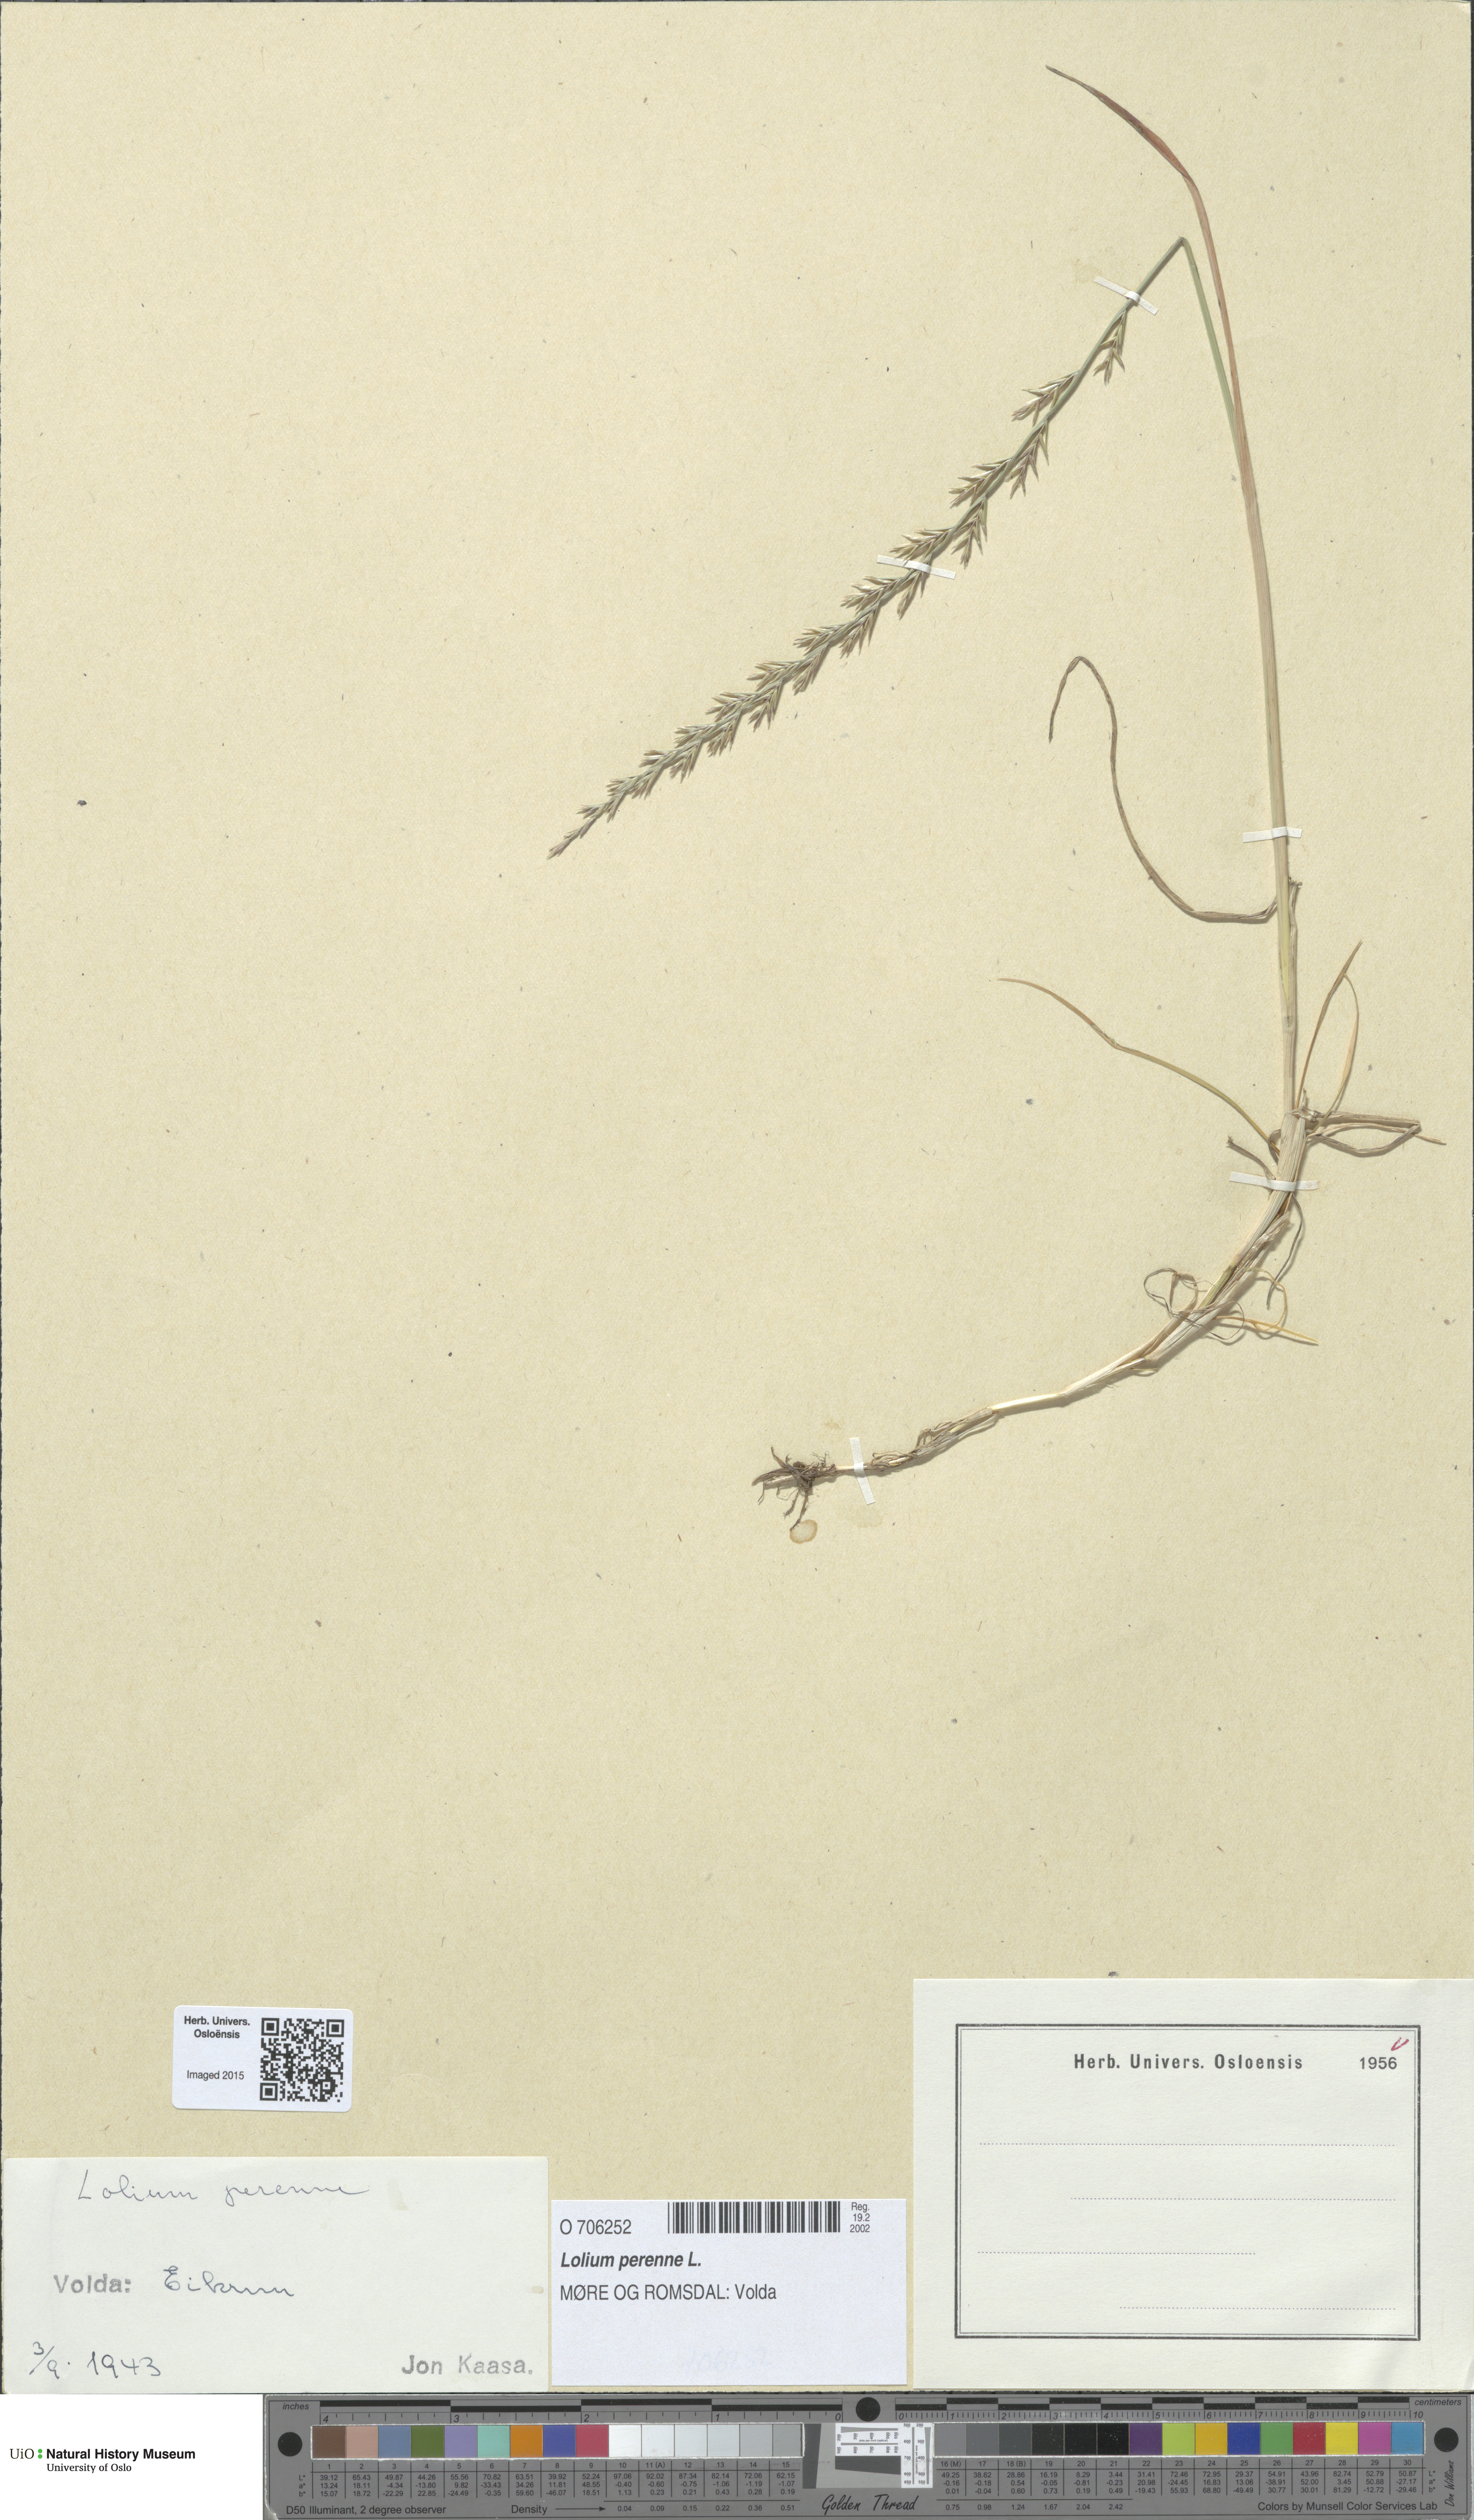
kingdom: Plantae
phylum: Tracheophyta
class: Liliopsida
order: Poales
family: Poaceae
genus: Lolium
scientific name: Lolium perenne
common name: Perennial ryegrass
